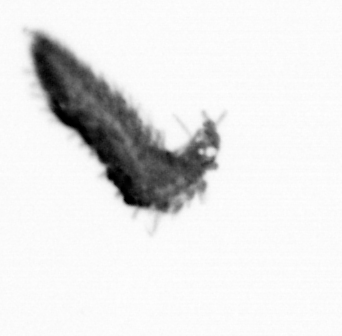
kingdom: Animalia
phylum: Annelida
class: Polychaeta
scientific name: Polychaeta
